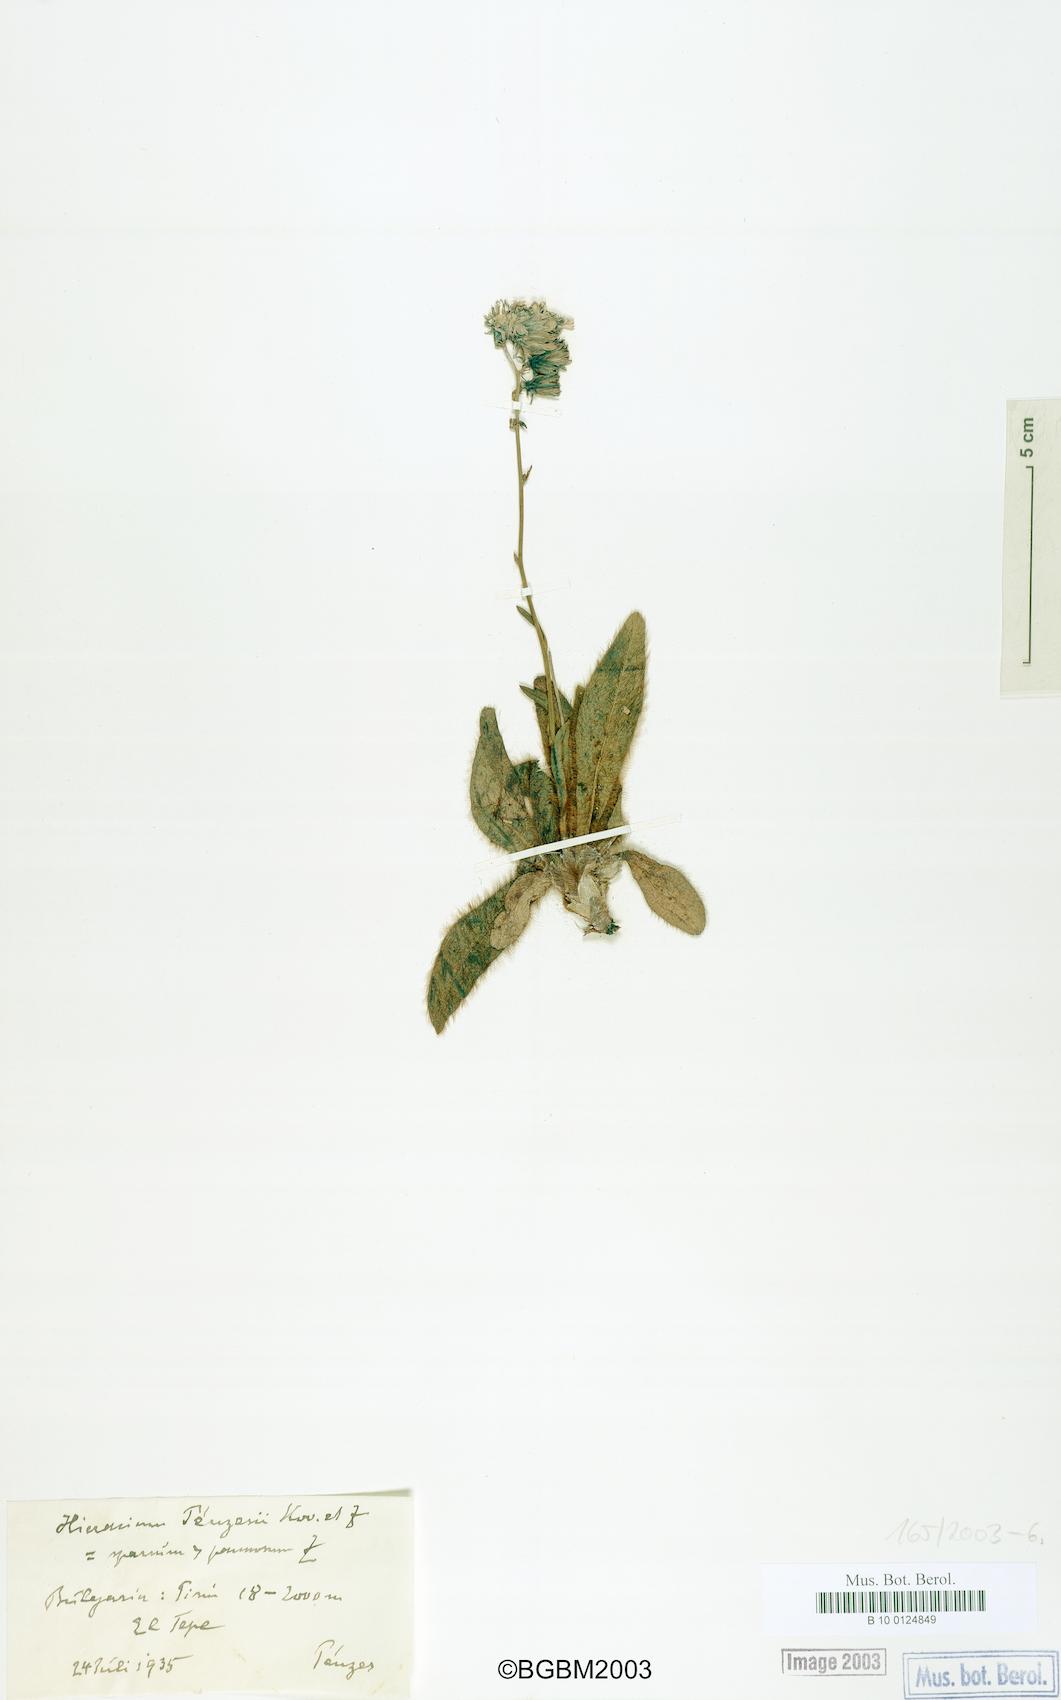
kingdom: Plantae
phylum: Tracheophyta
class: Magnoliopsida
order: Asterales
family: Asteraceae
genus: Hieracium
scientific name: Hieracium penzesii
